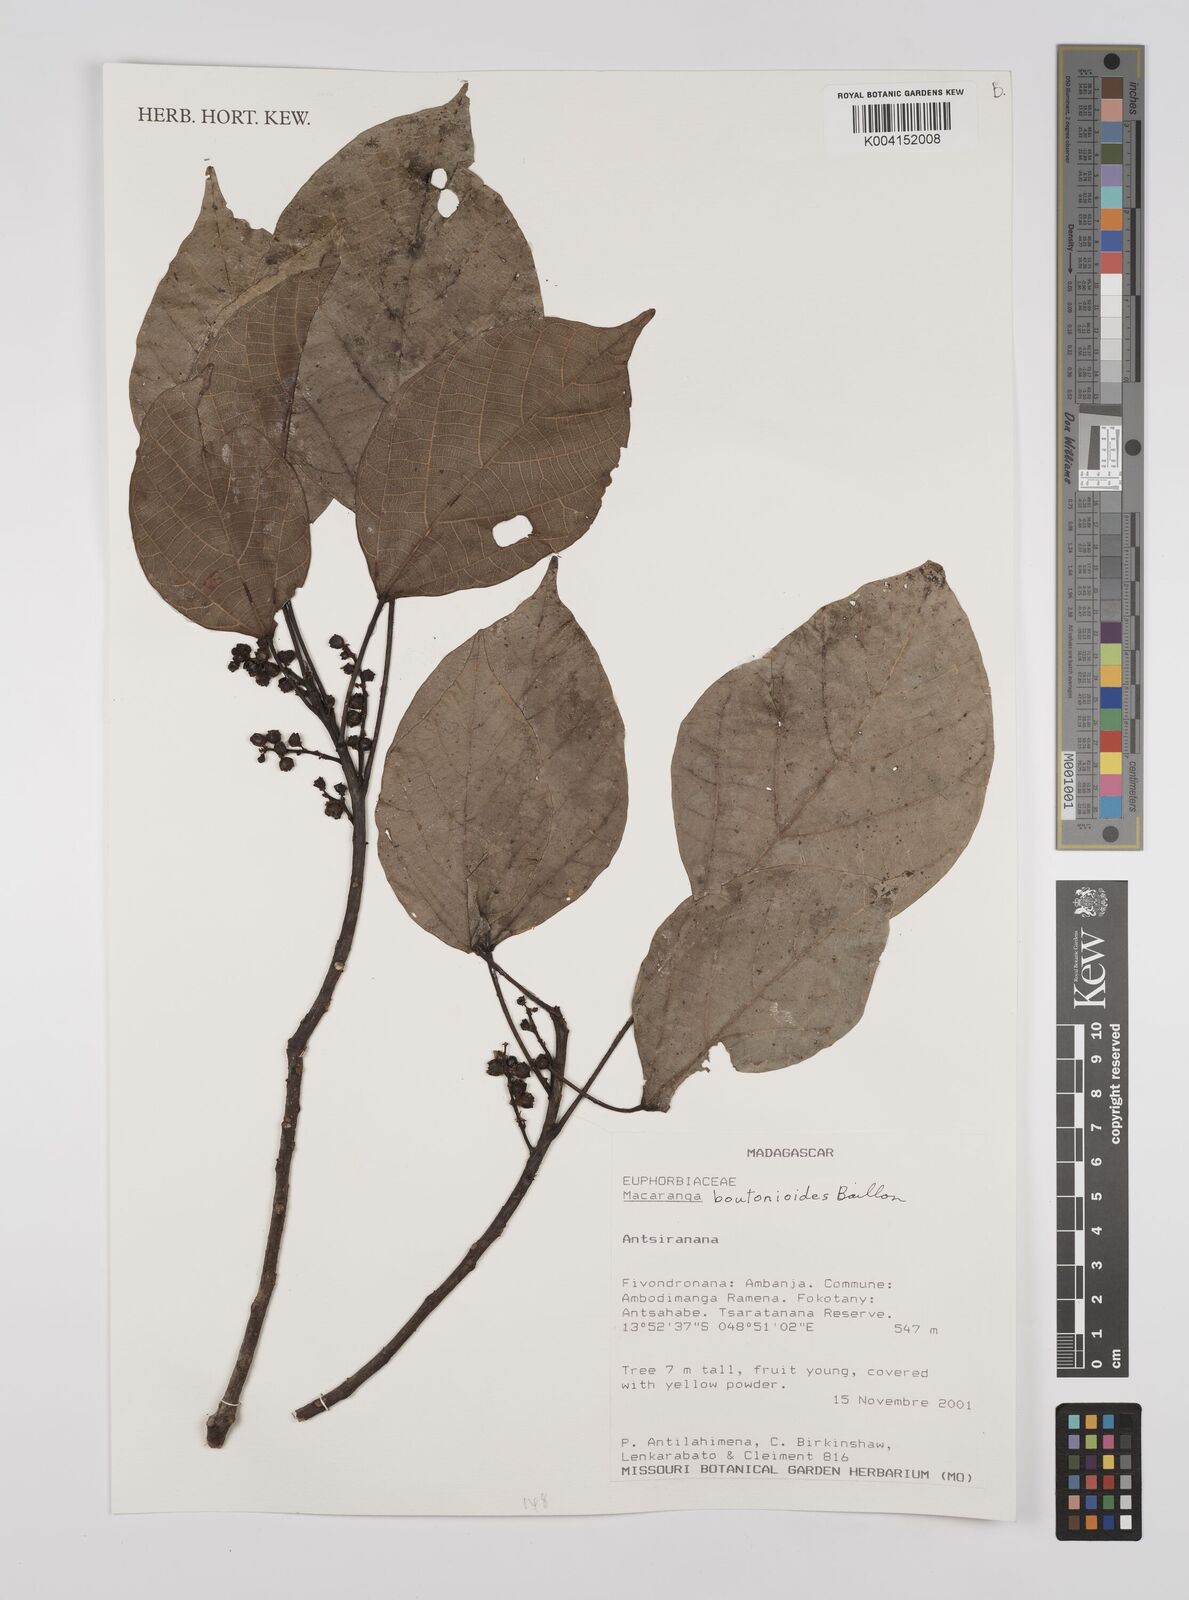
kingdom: Plantae
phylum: Tracheophyta
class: Magnoliopsida
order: Malpighiales
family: Euphorbiaceae
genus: Macaranga
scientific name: Macaranga
